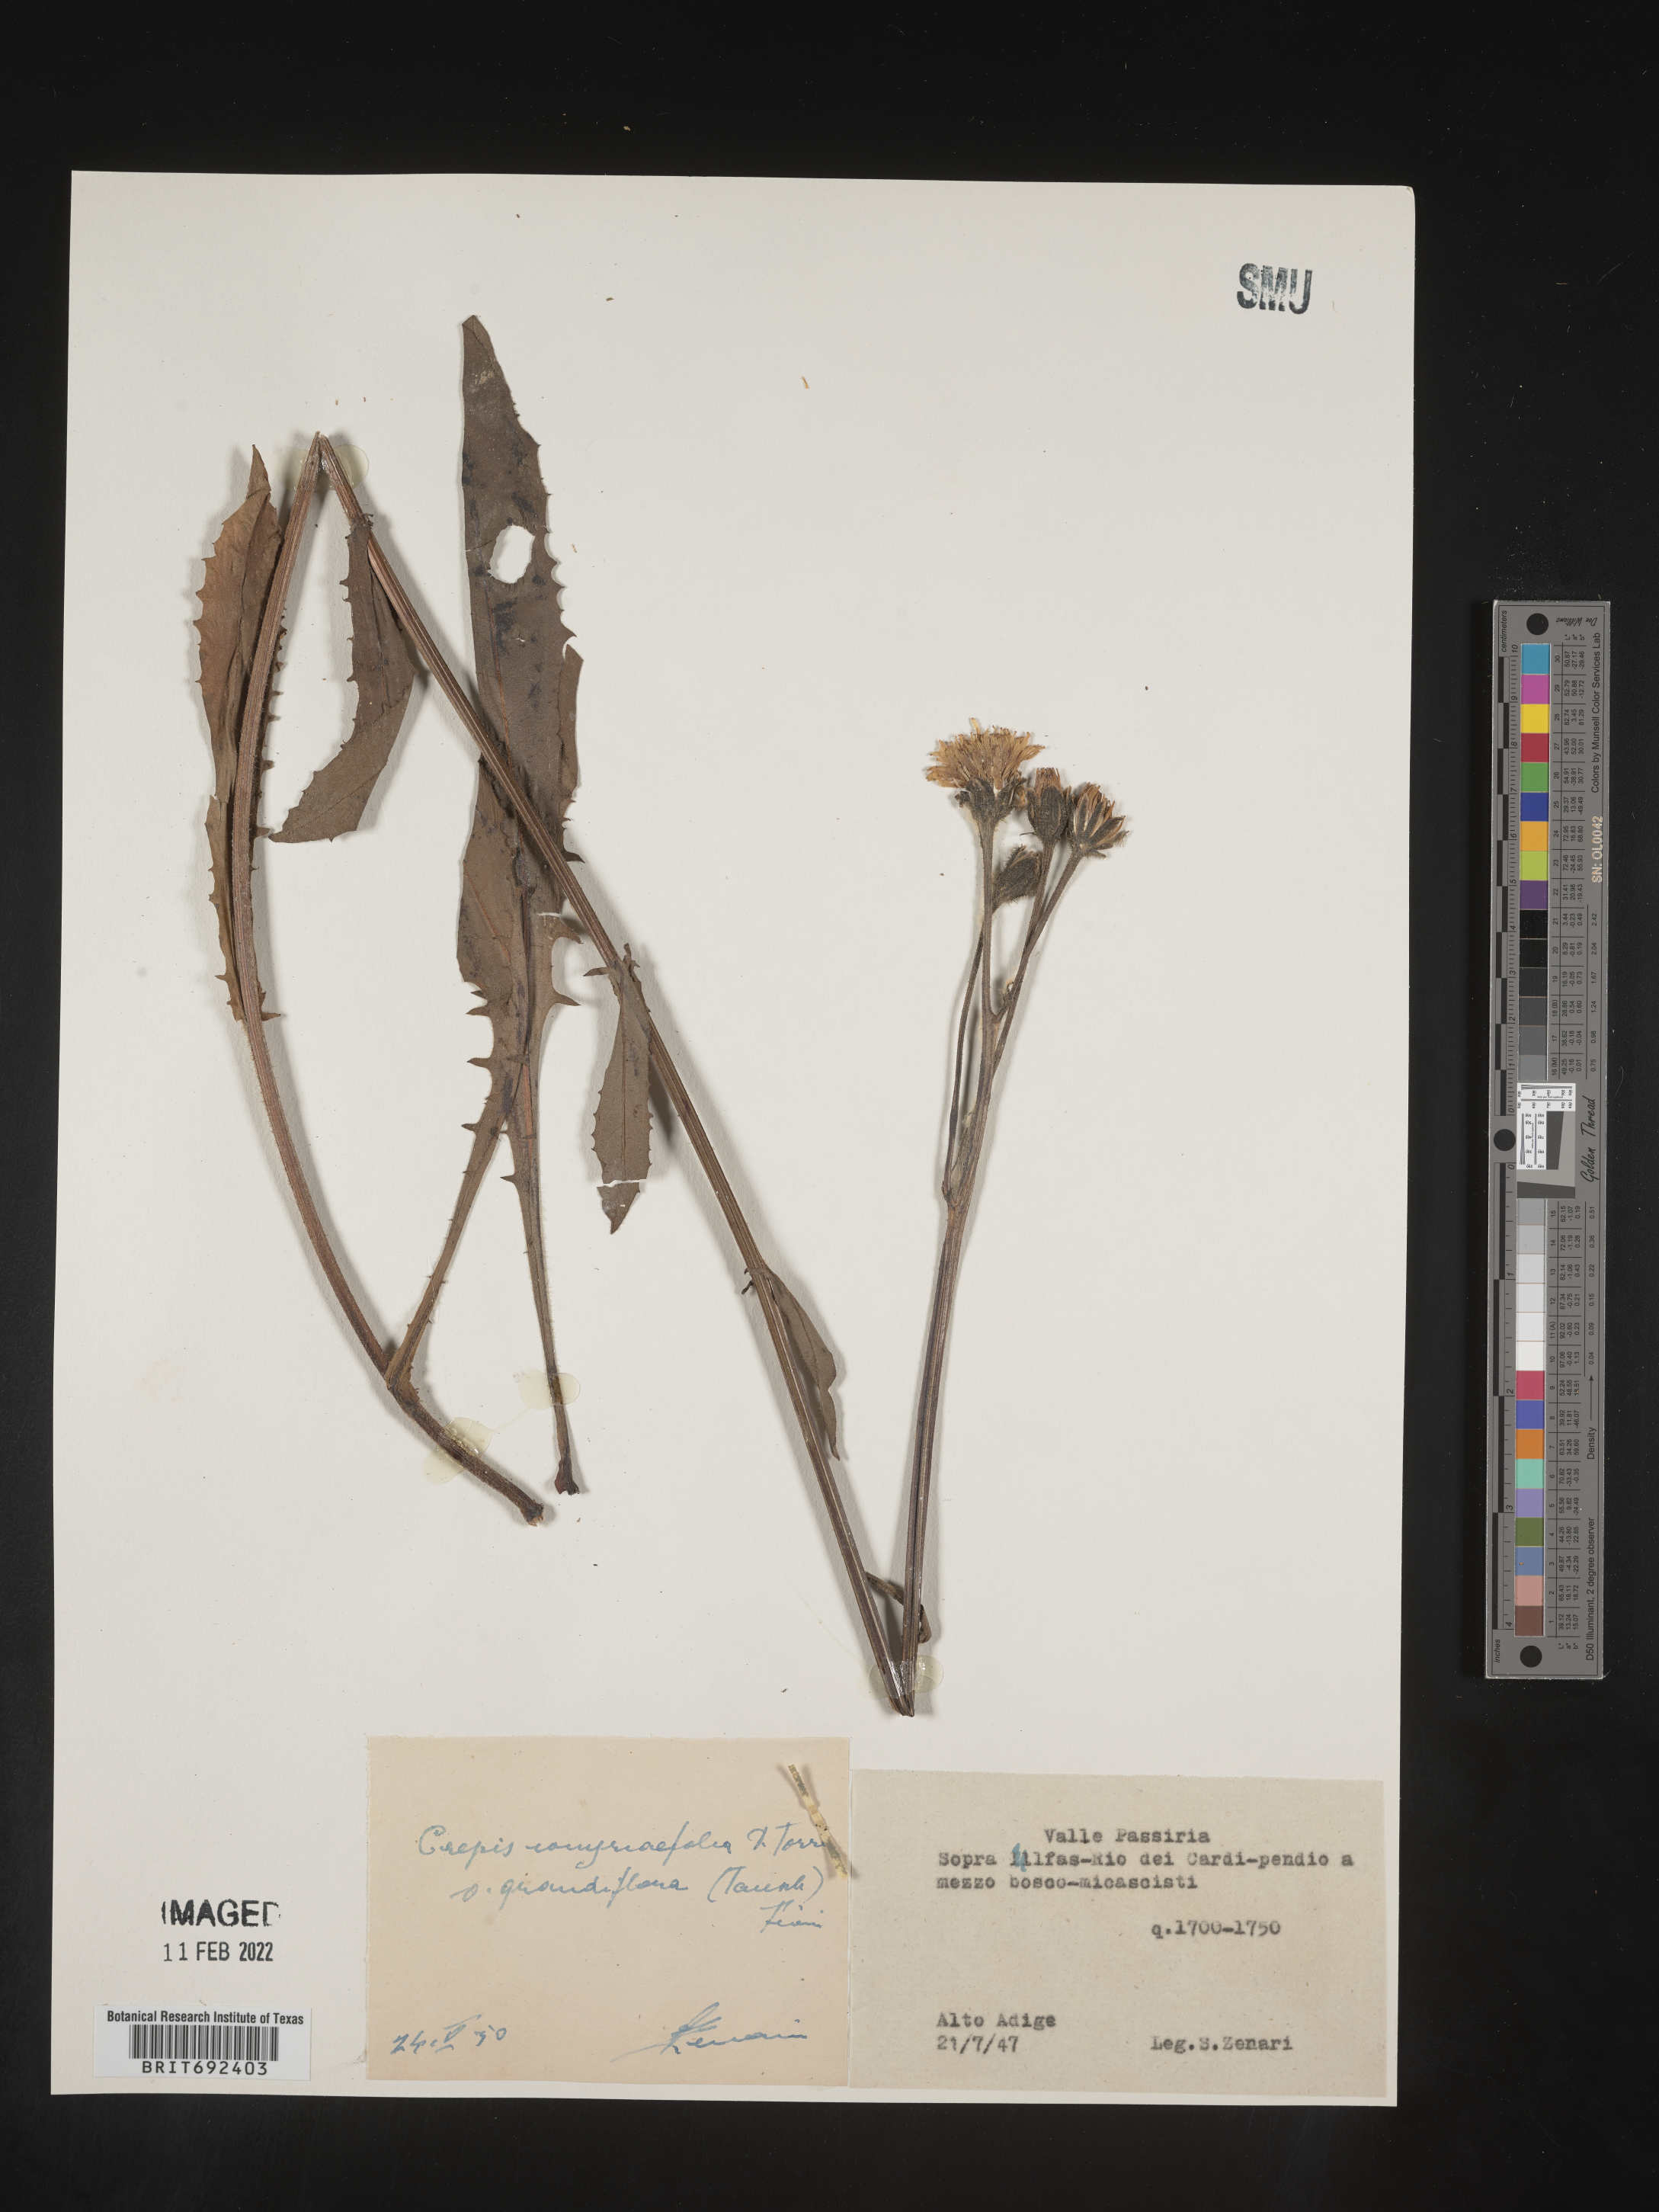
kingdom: Plantae
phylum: Tracheophyta
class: Magnoliopsida
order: Asterales
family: Asteraceae
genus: Crepis
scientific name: Crepis
